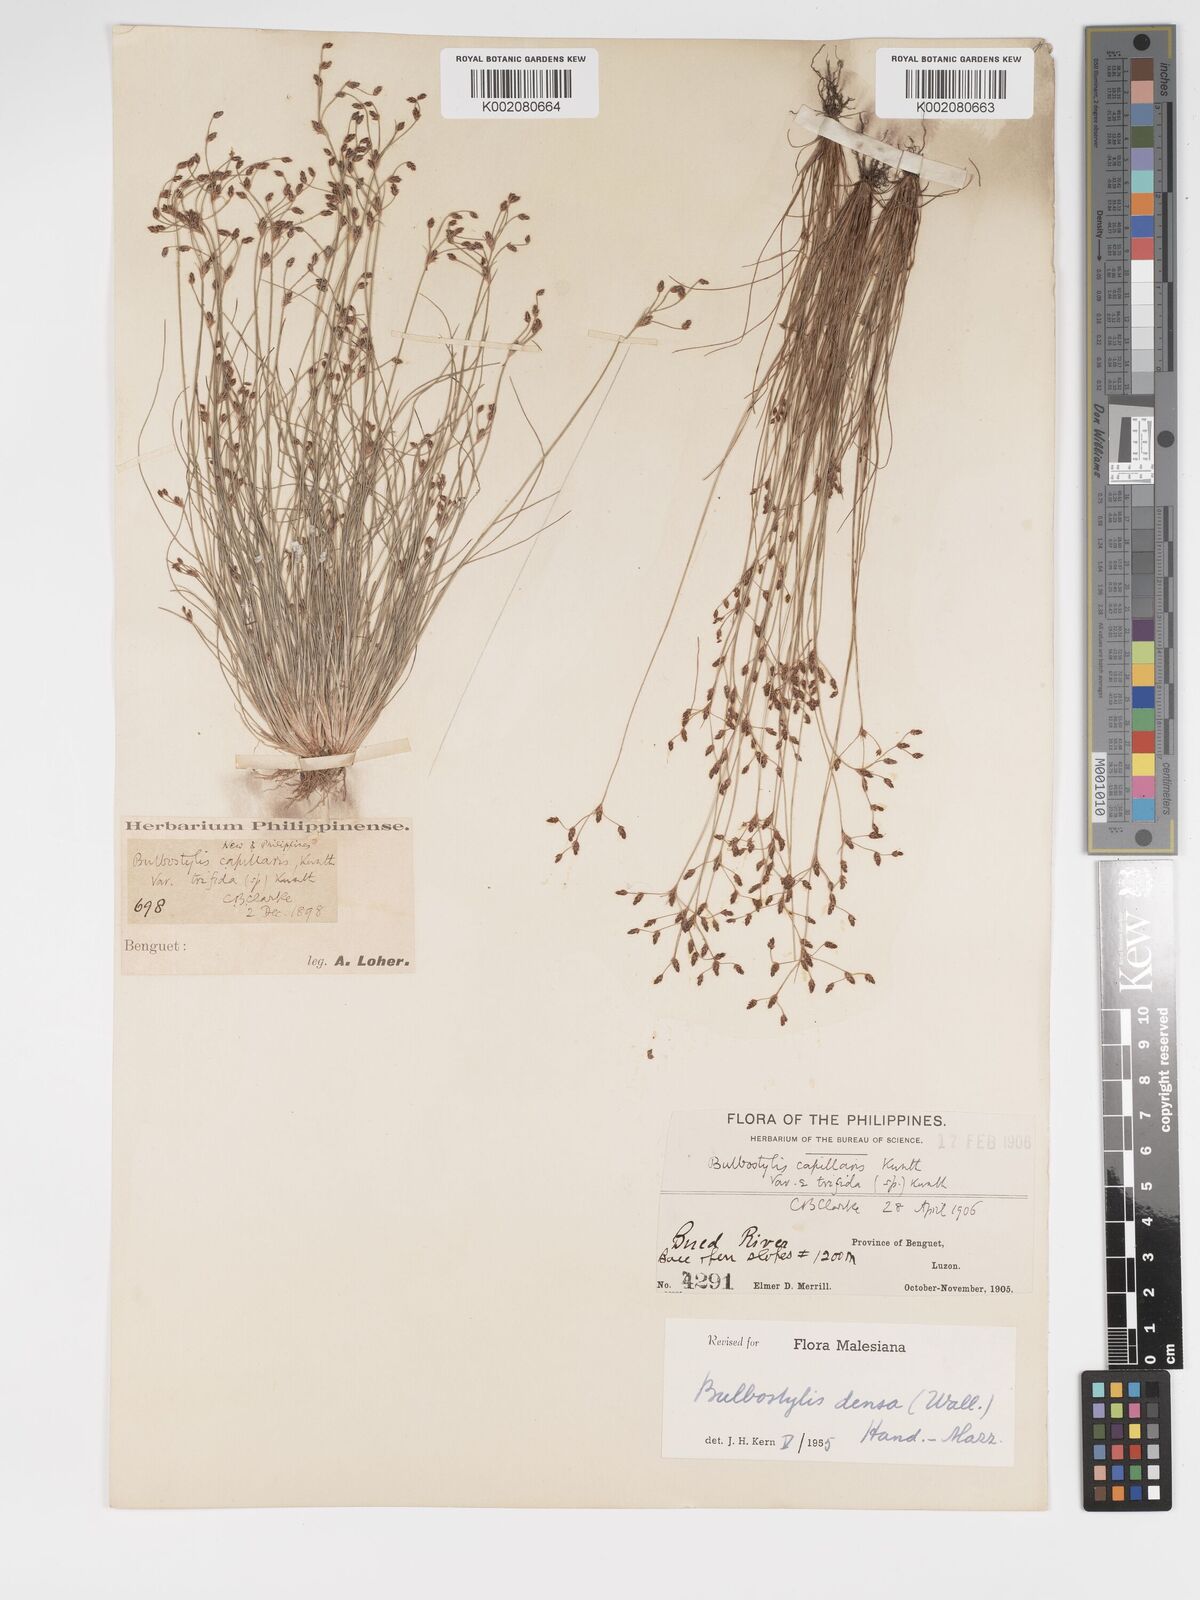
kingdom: Plantae
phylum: Tracheophyta
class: Liliopsida
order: Poales
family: Cyperaceae
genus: Bulbostylis
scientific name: Bulbostylis densa
